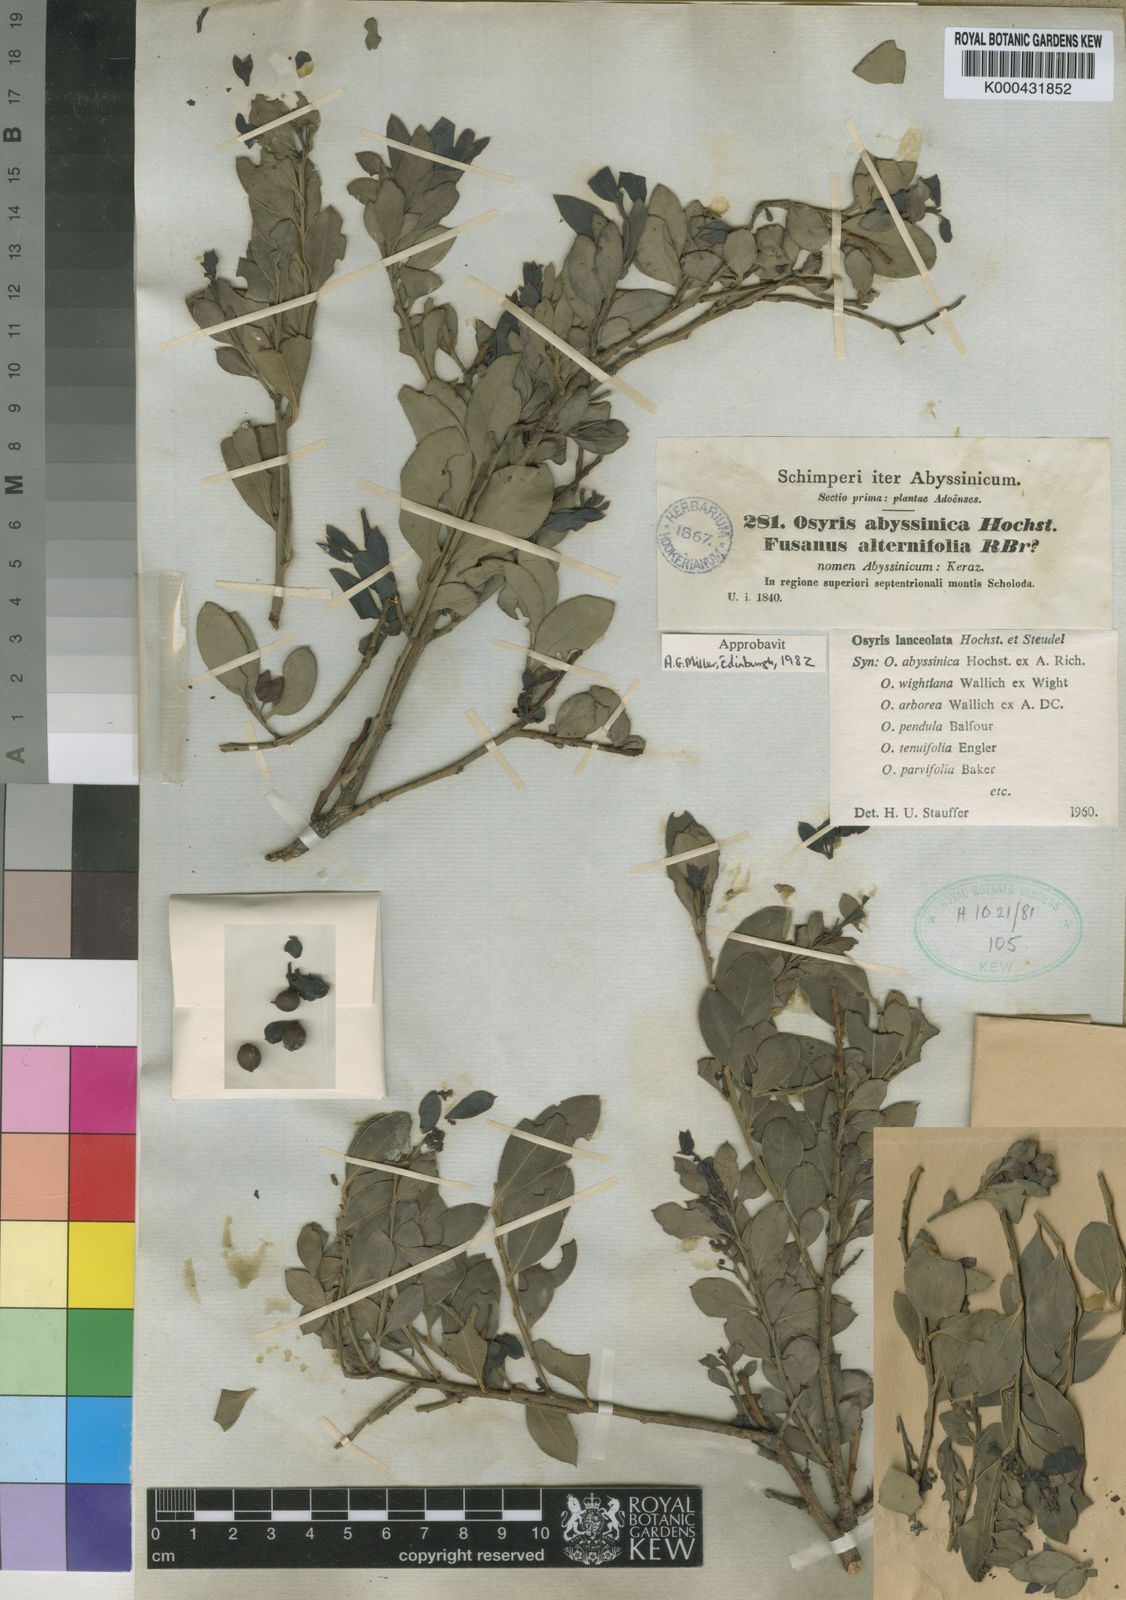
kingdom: Plantae
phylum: Tracheophyta
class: Magnoliopsida
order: Santalales
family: Santalaceae
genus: Osyris
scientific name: Osyris lanceolata
